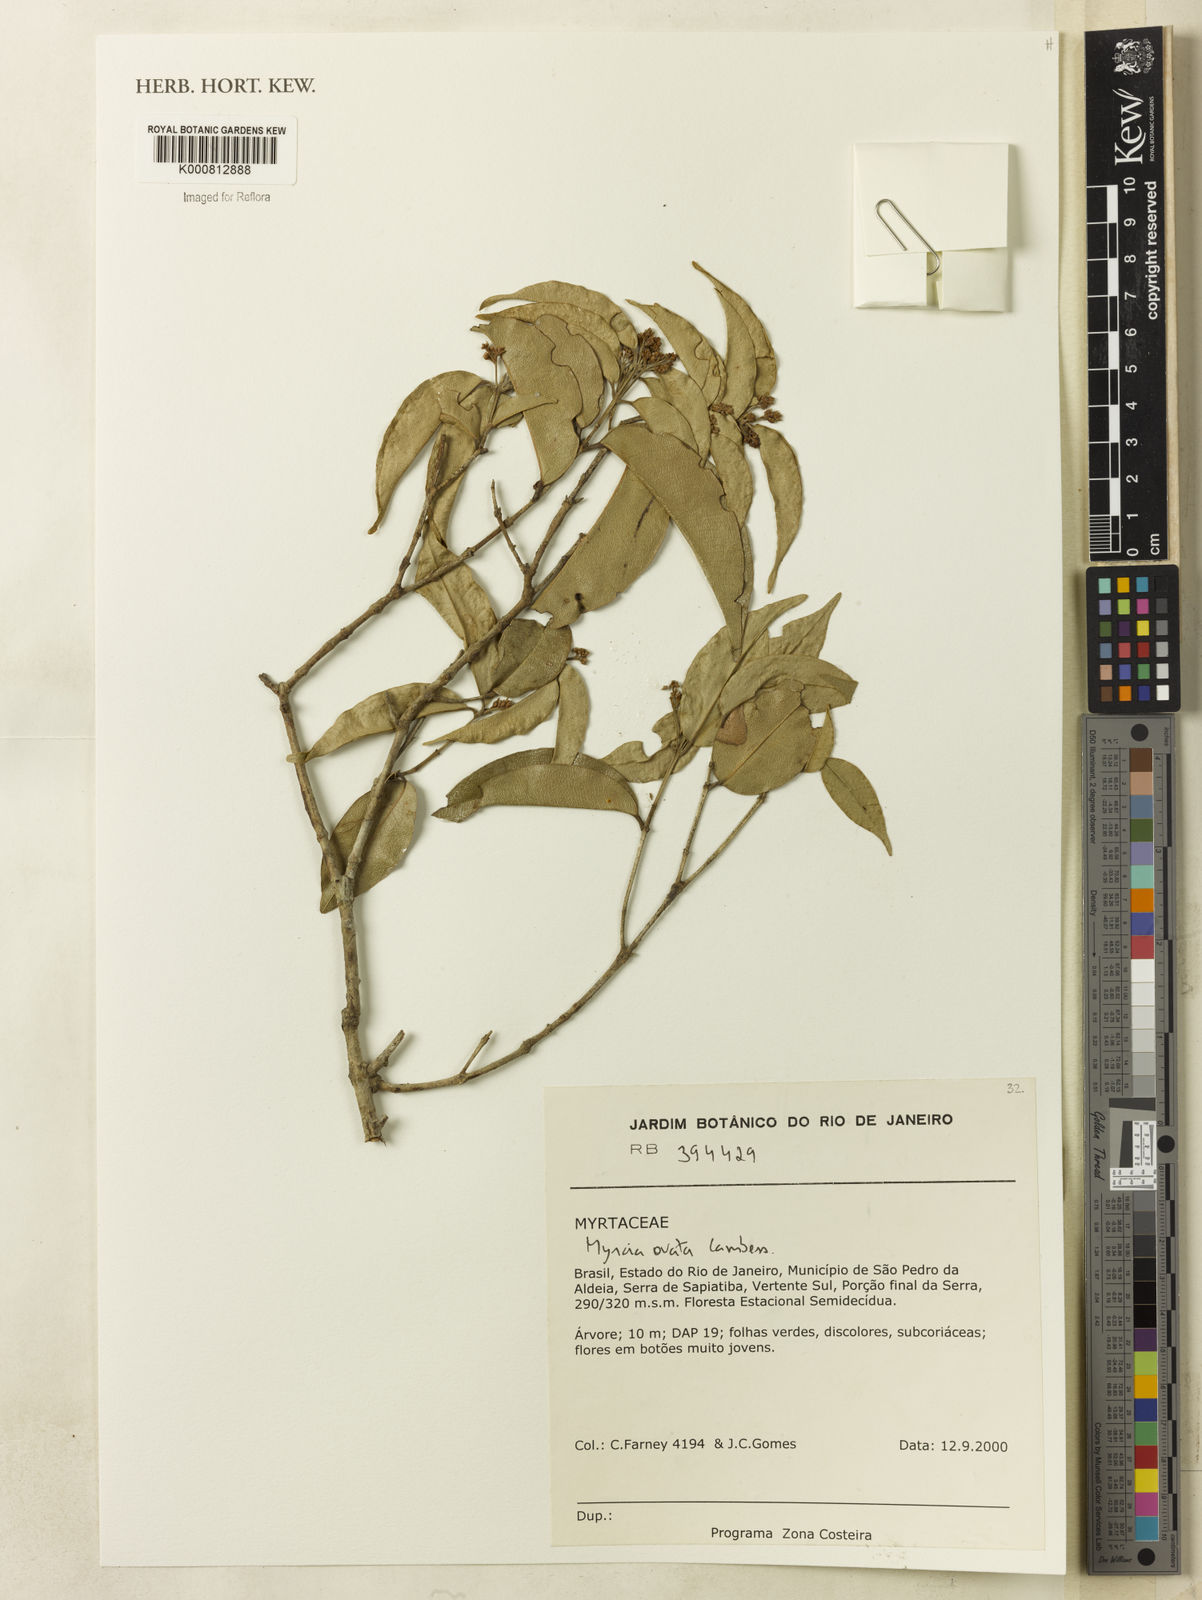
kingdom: Plantae
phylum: Tracheophyta
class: Magnoliopsida
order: Myrtales
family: Myrtaceae
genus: Myrcia
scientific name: Myrcia ovata
